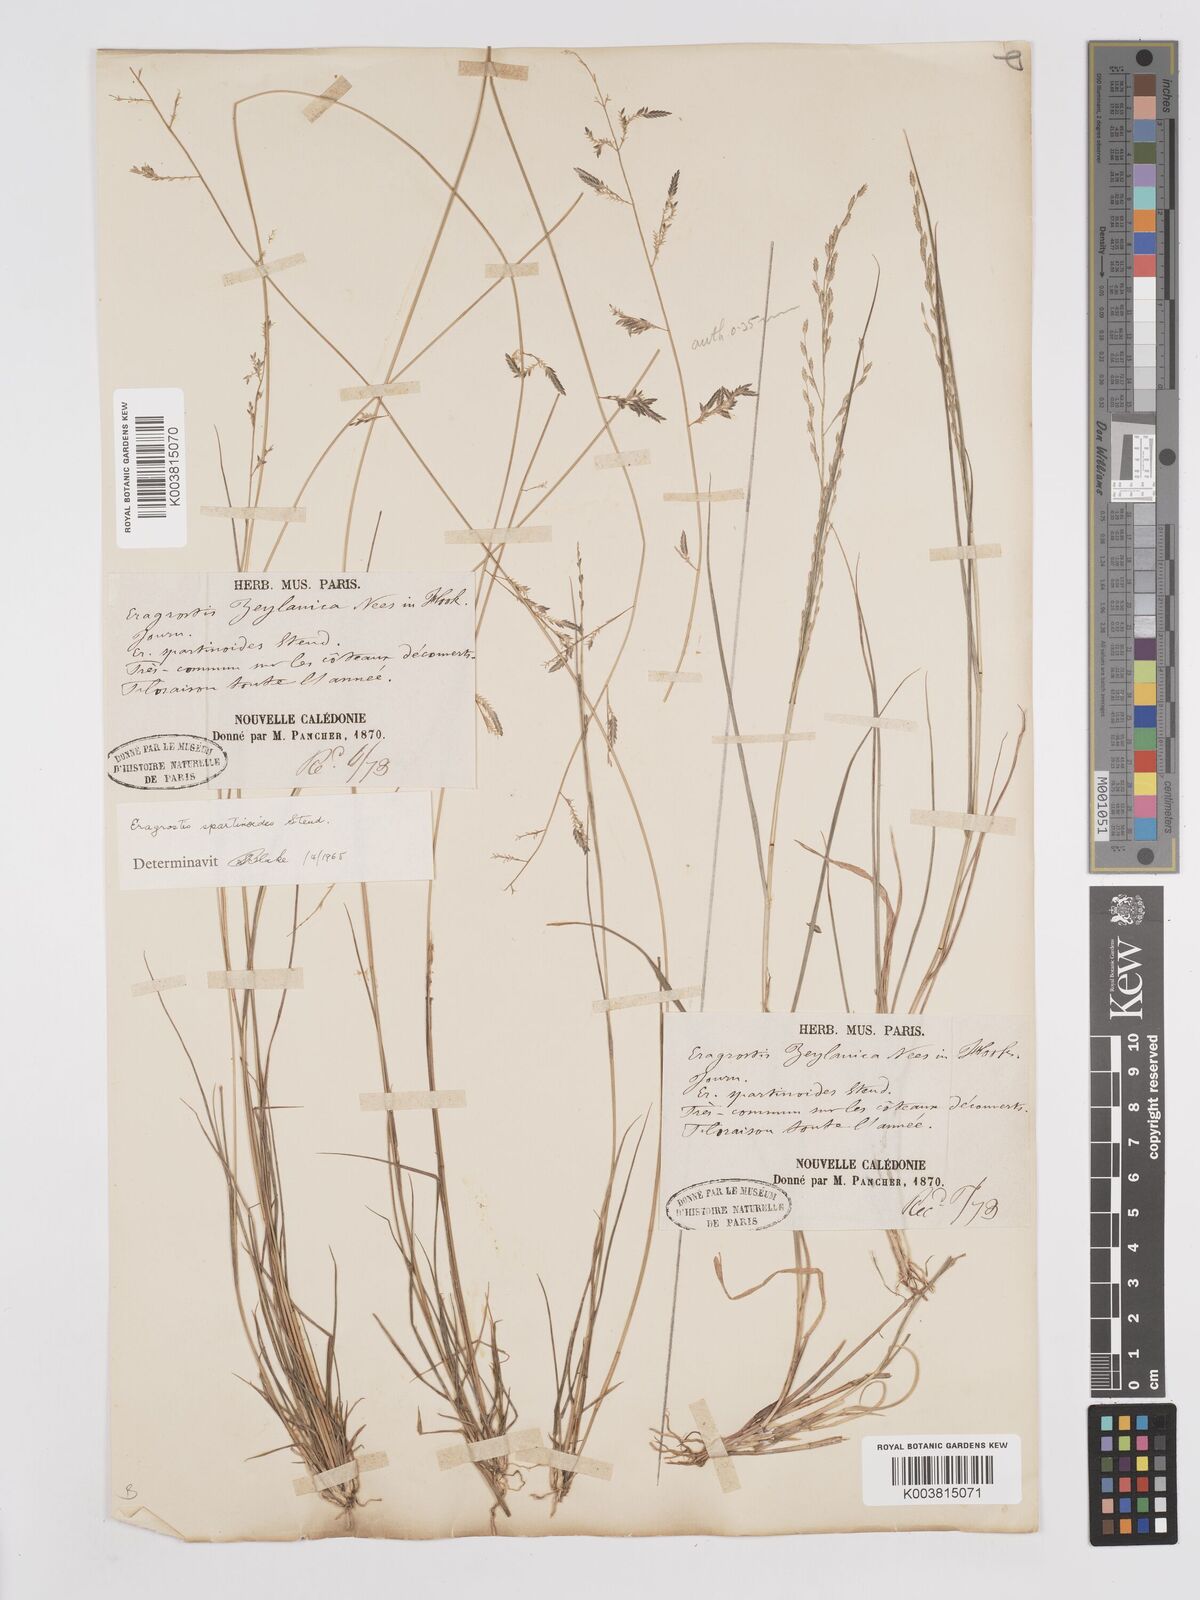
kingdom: Plantae
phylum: Tracheophyta
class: Liliopsida
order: Poales
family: Poaceae
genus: Eragrostis
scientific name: Eragrostis brownii
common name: Lovegrass
